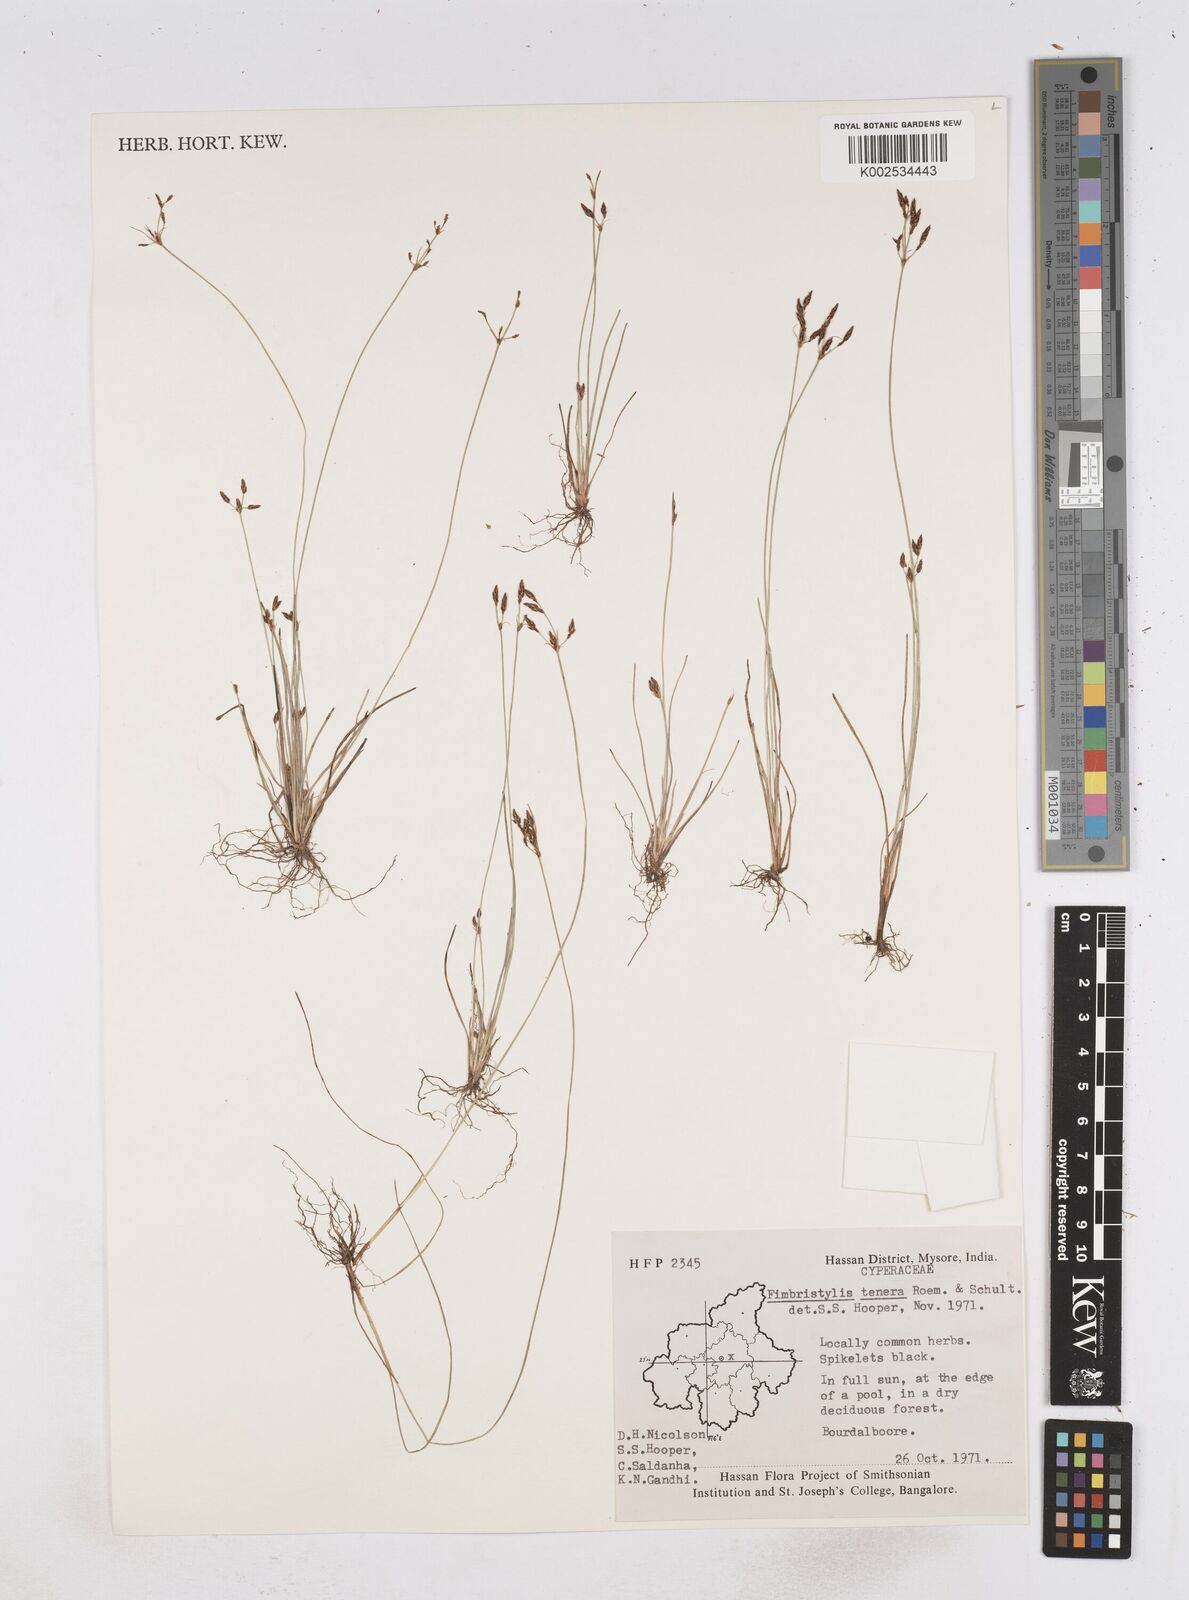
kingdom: Plantae
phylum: Tracheophyta
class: Liliopsida
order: Poales
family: Cyperaceae
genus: Fimbristylis
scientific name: Fimbristylis tenera
